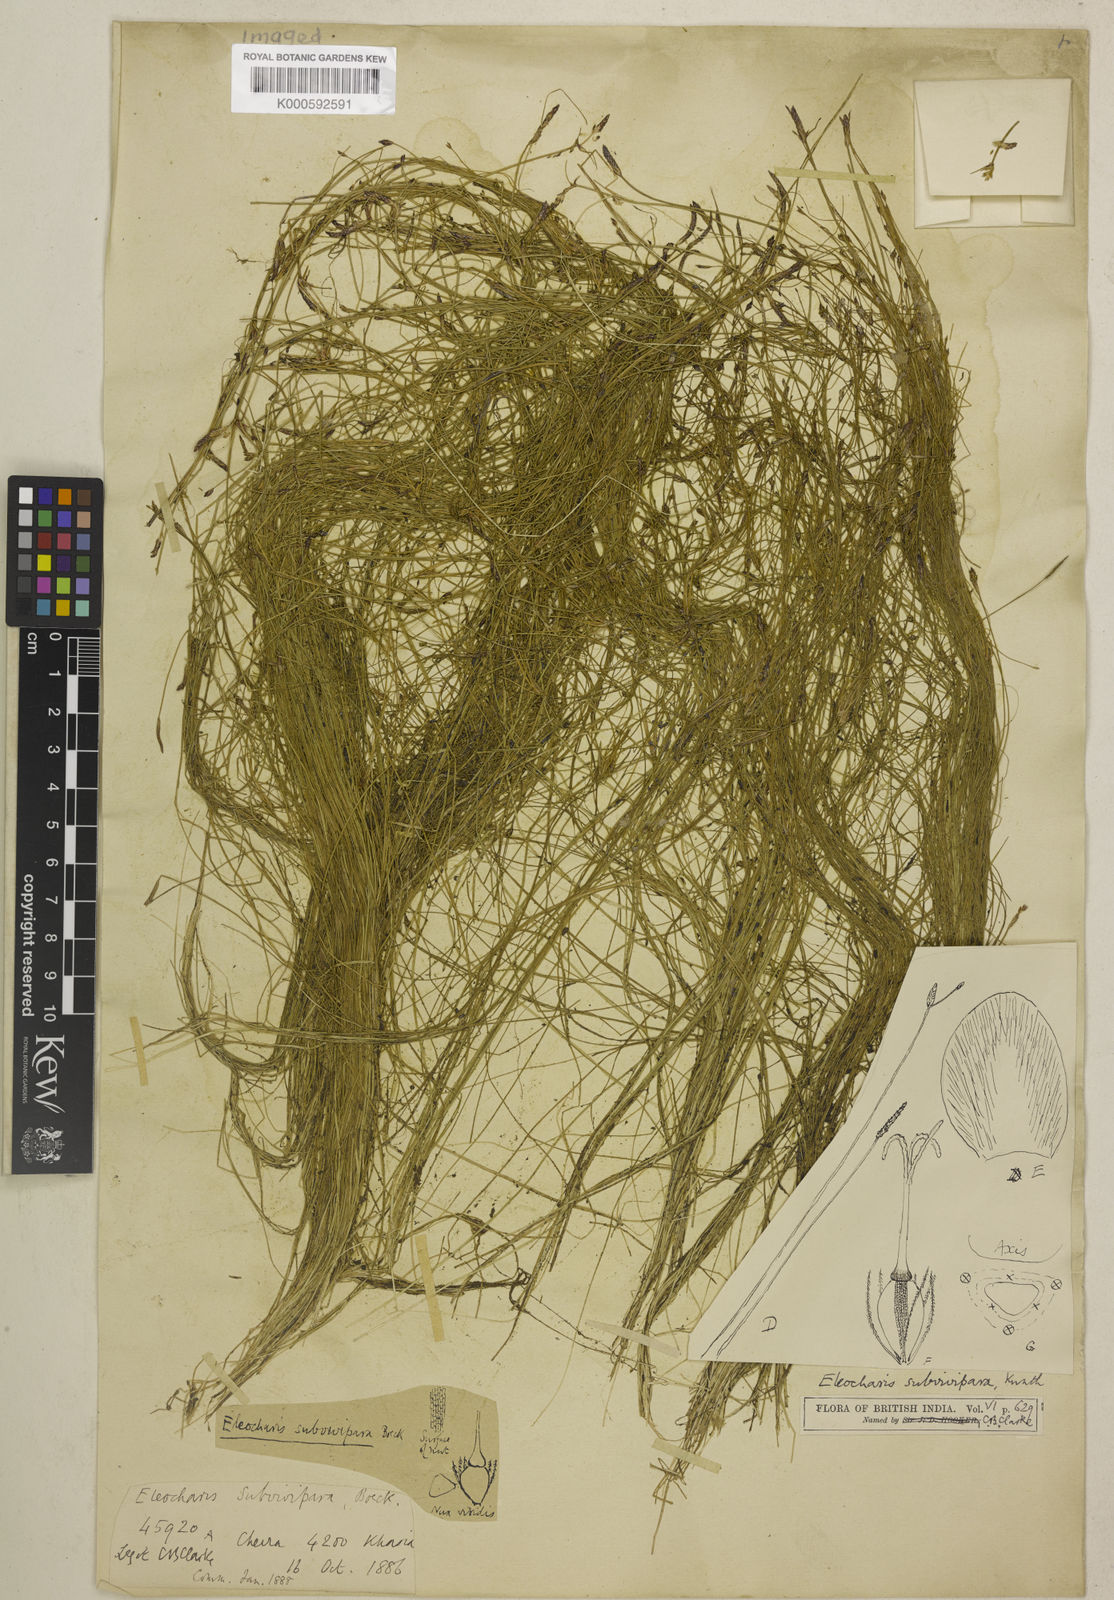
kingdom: Plantae
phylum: Tracheophyta
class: Liliopsida
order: Poales
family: Cyperaceae
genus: Eleocharis
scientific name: Eleocharis caespitosissima
